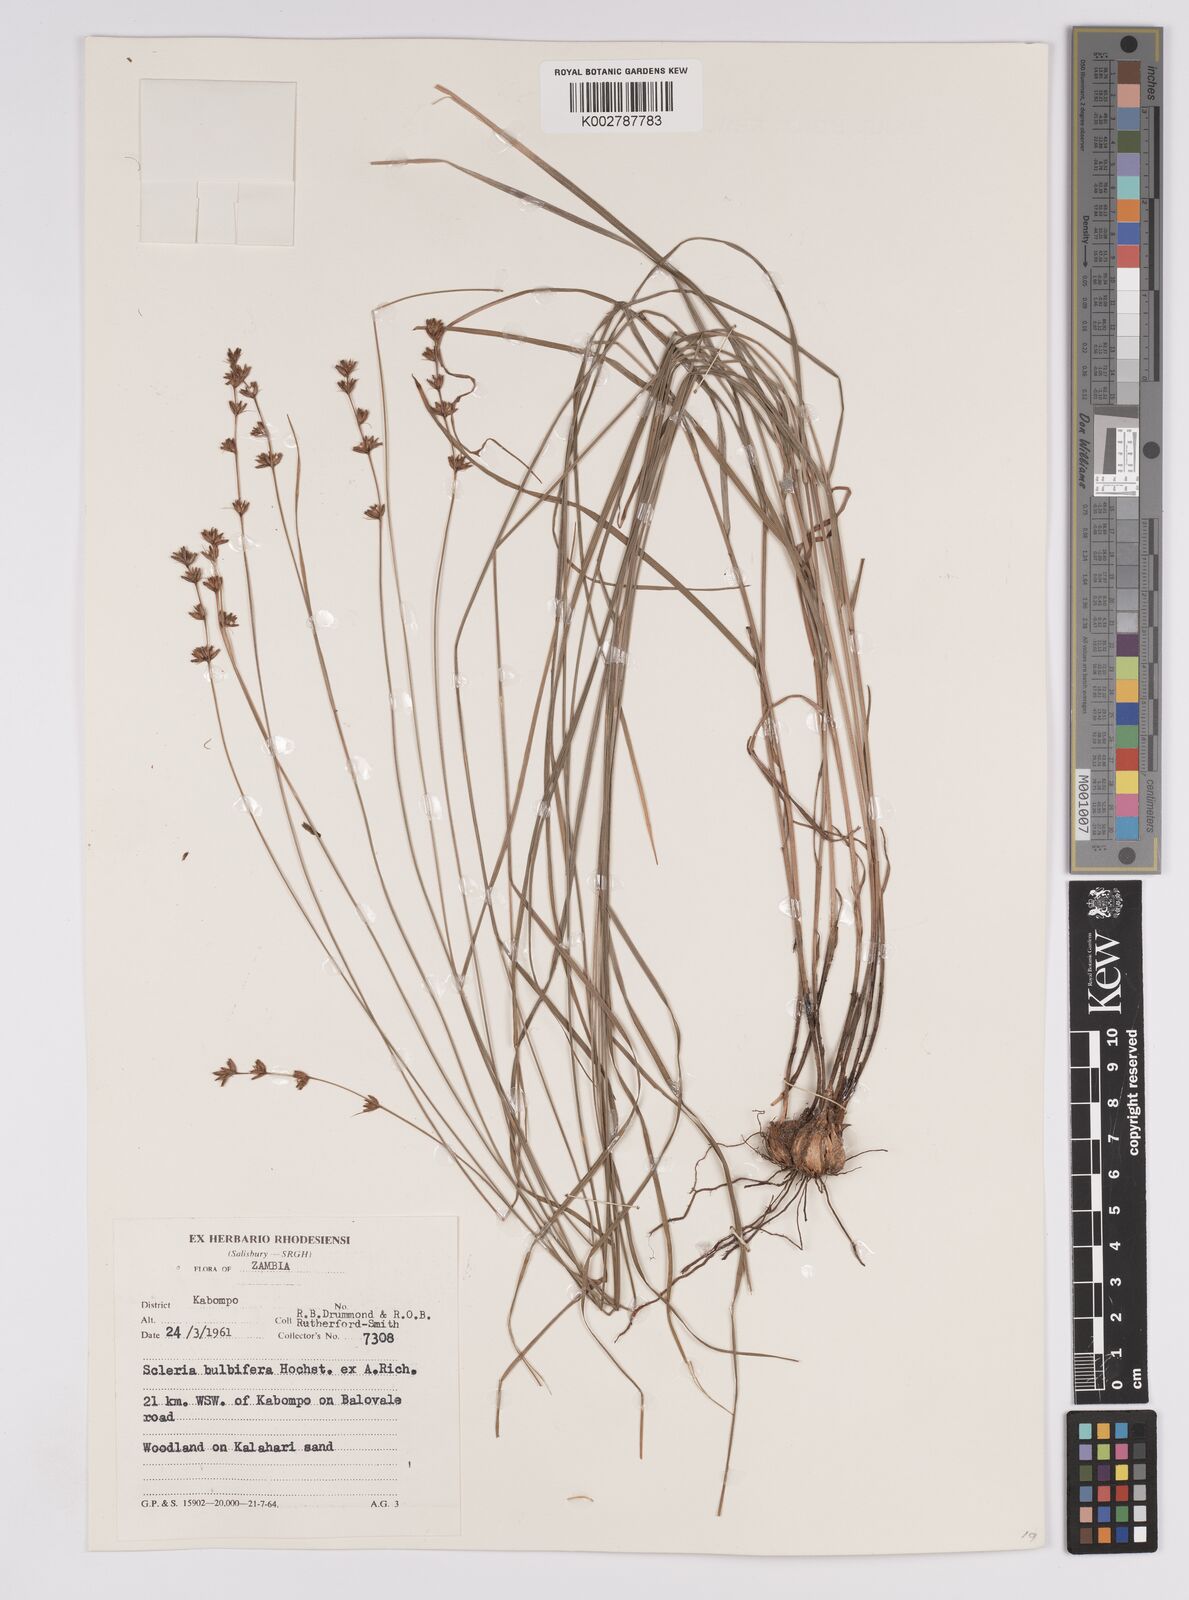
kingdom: Plantae
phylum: Tracheophyta
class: Liliopsida
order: Poales
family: Cyperaceae
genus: Scleria
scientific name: Scleria bulbifera
